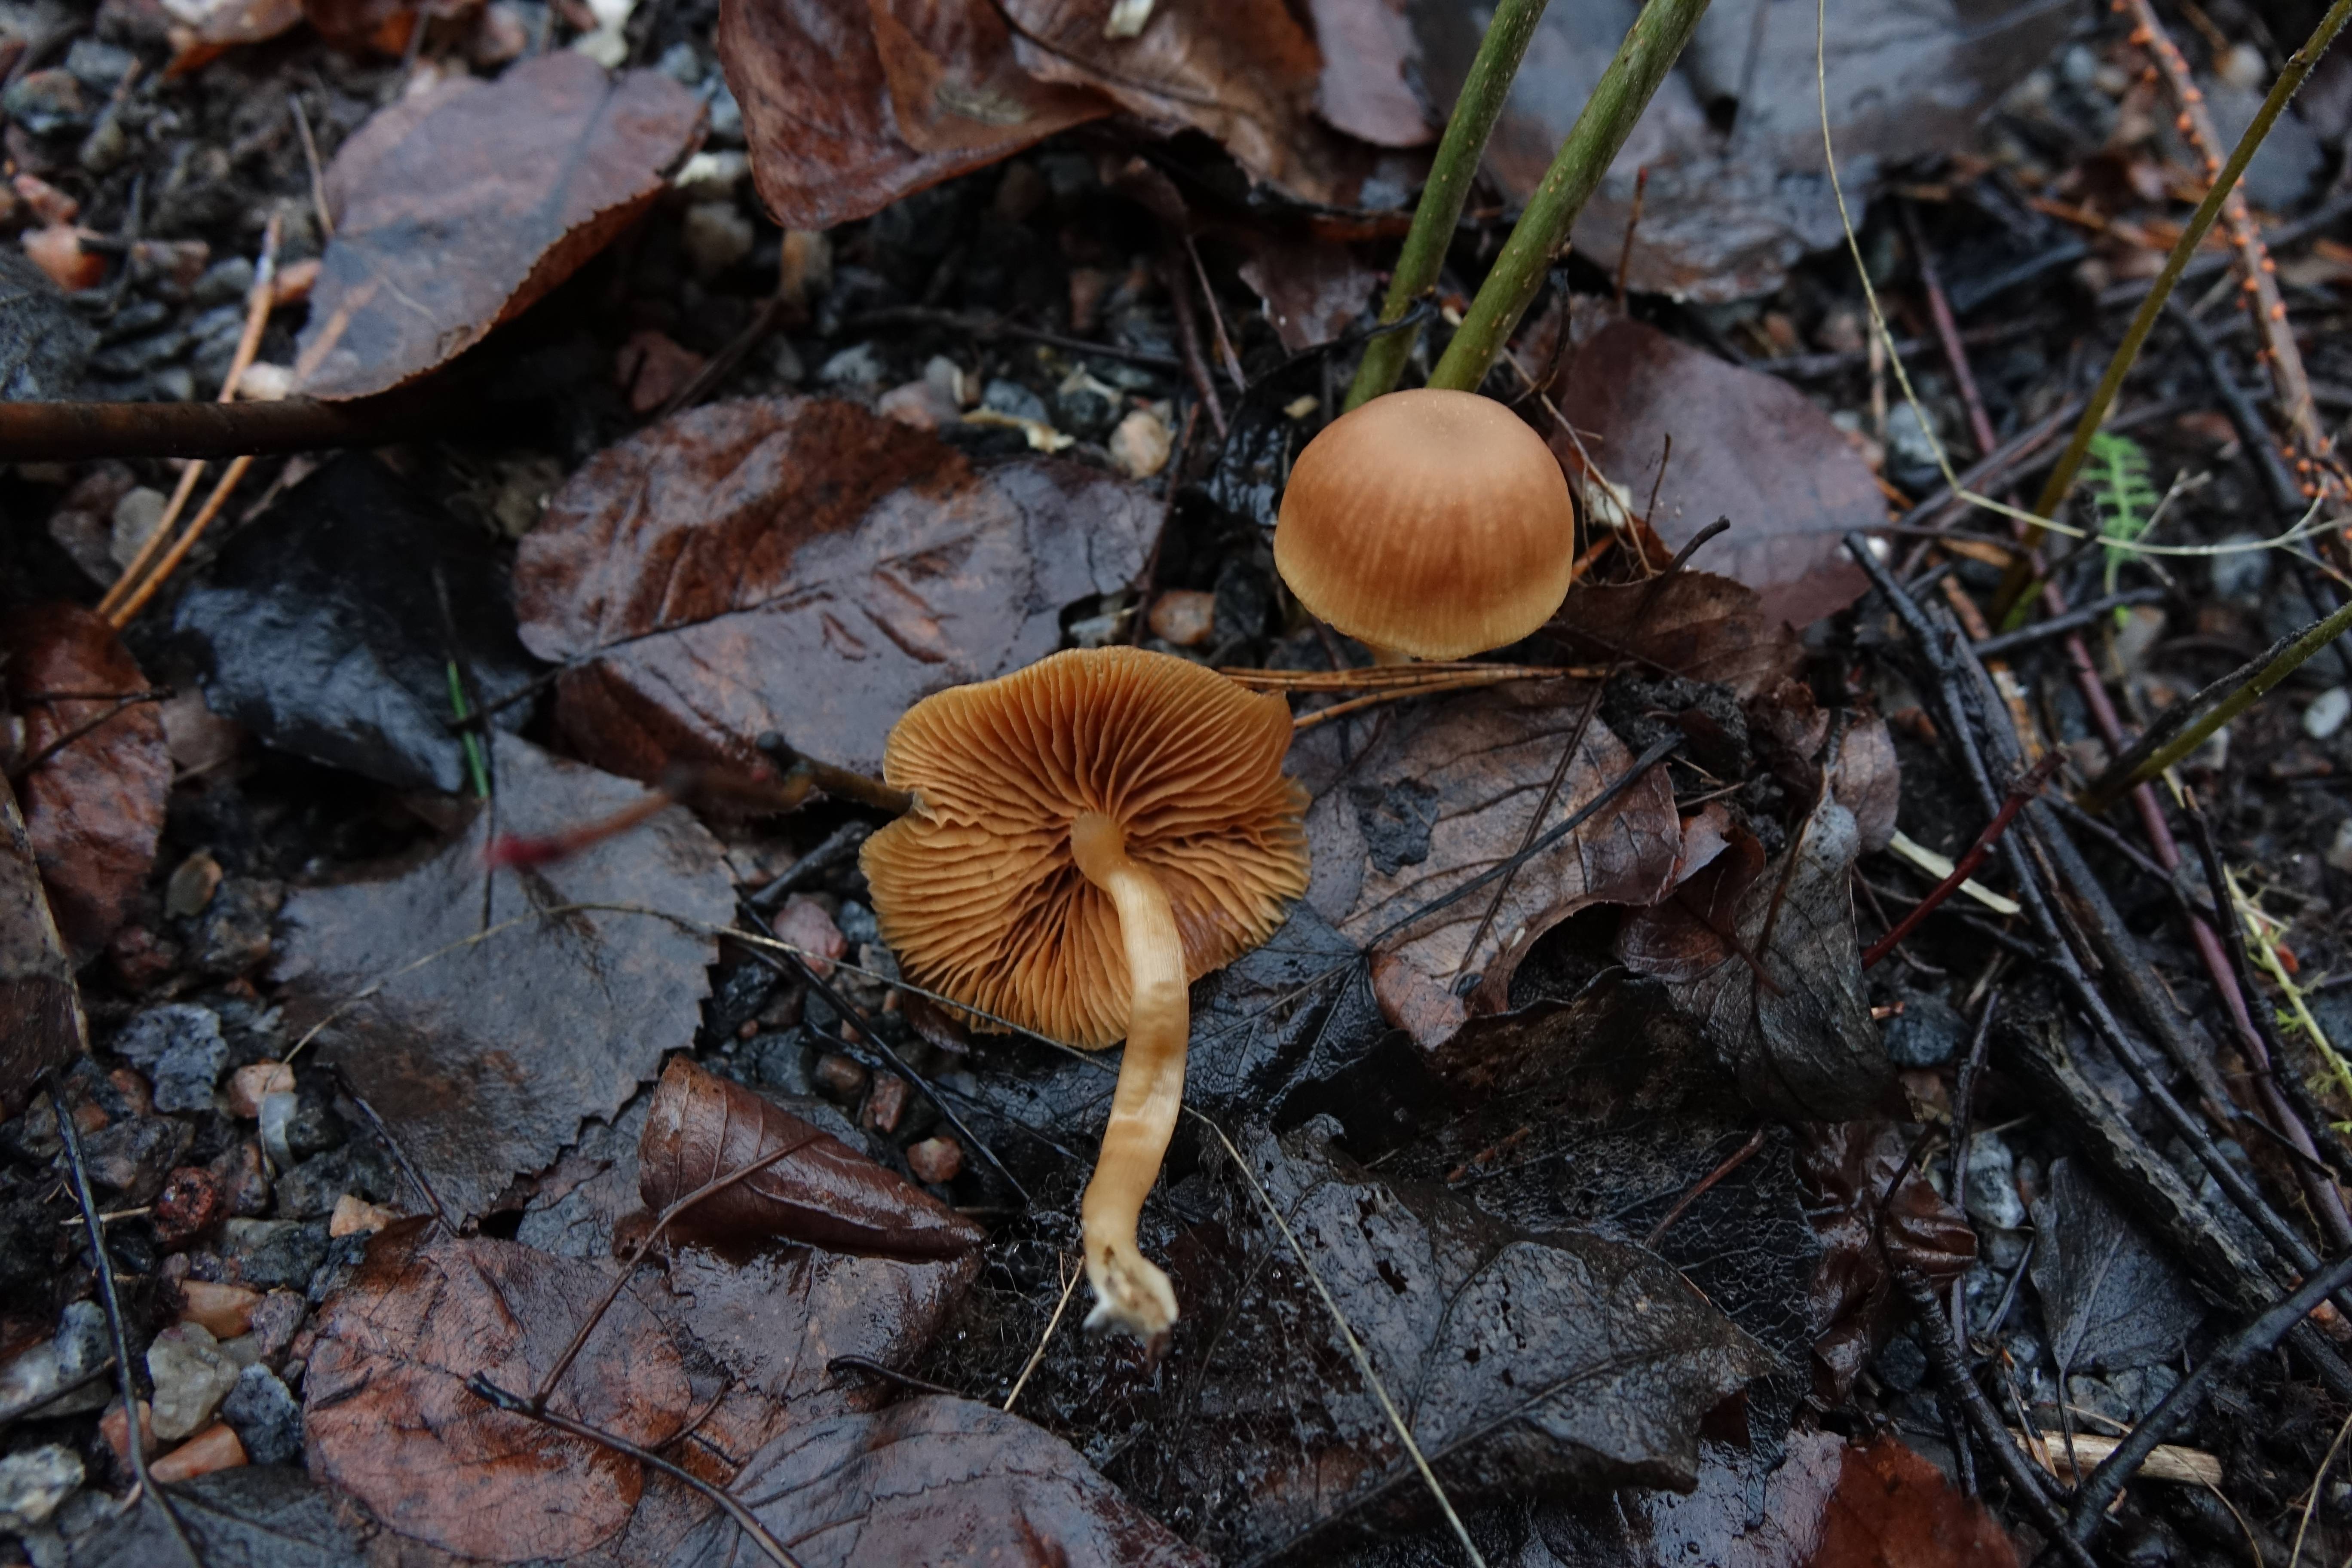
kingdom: Fungi
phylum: Basidiomycota
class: Agaricomycetes
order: Agaricales
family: Tubariaceae
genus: Tubaria
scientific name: Tubaria furfuracea
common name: Scurfy twiglet
